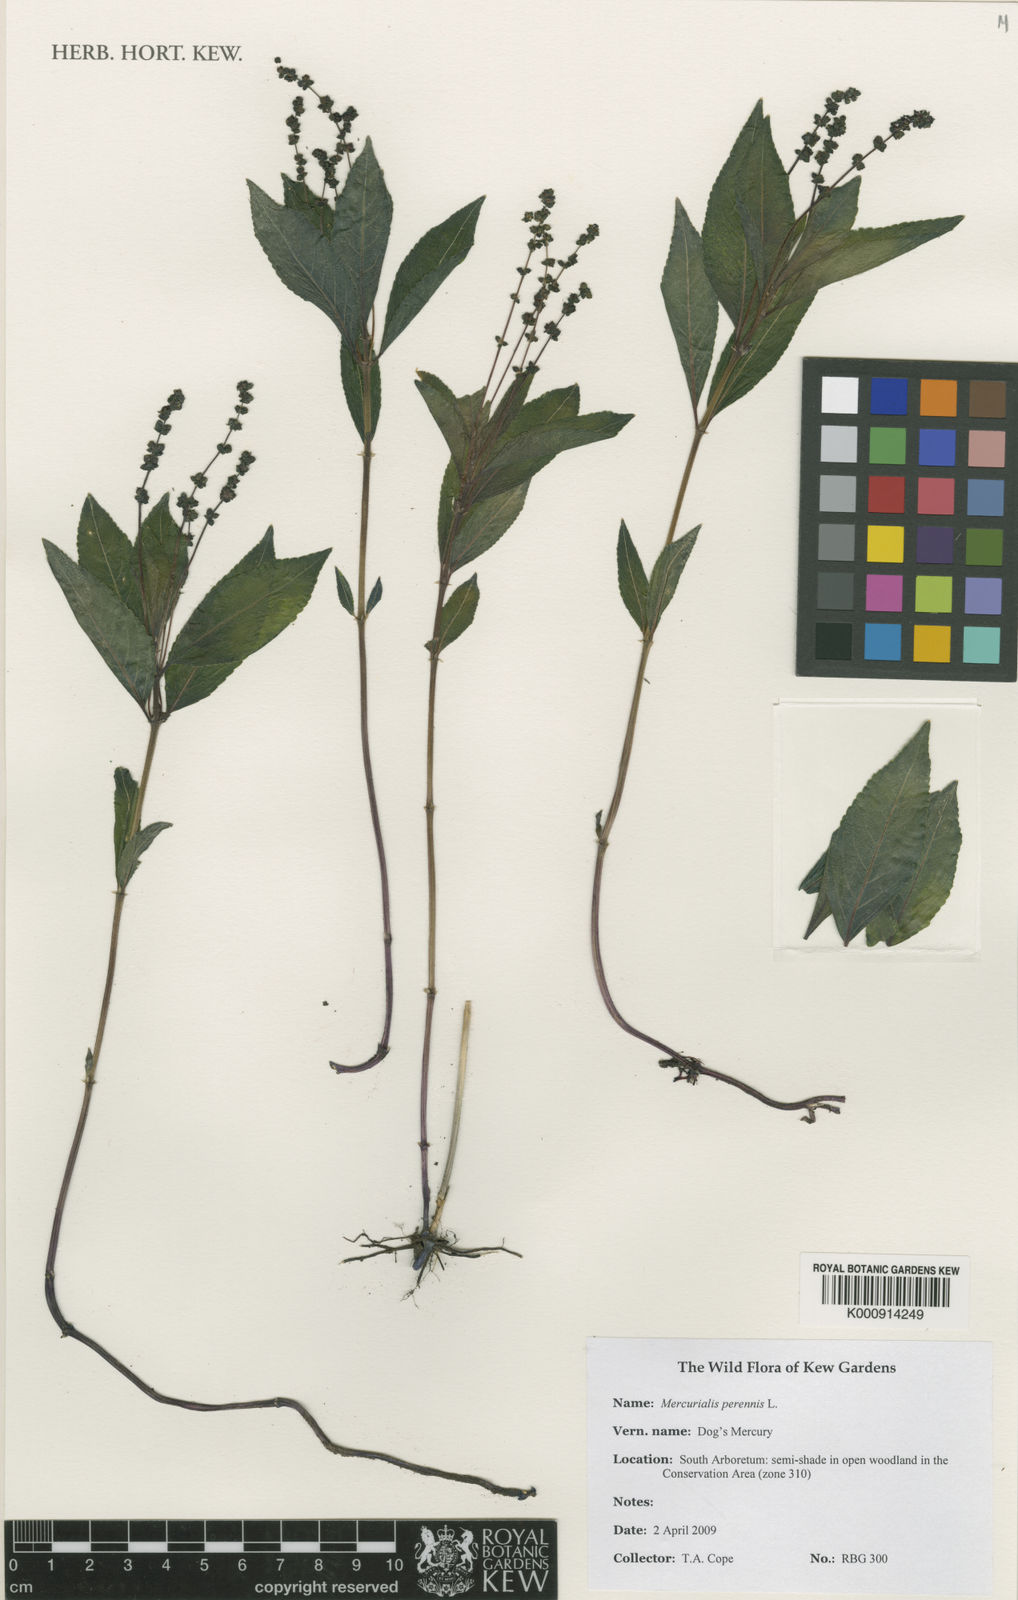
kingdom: Plantae
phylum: Tracheophyta
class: Magnoliopsida
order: Malpighiales
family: Euphorbiaceae
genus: Mercurialis
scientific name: Mercurialis perennis
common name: Dog mercury
